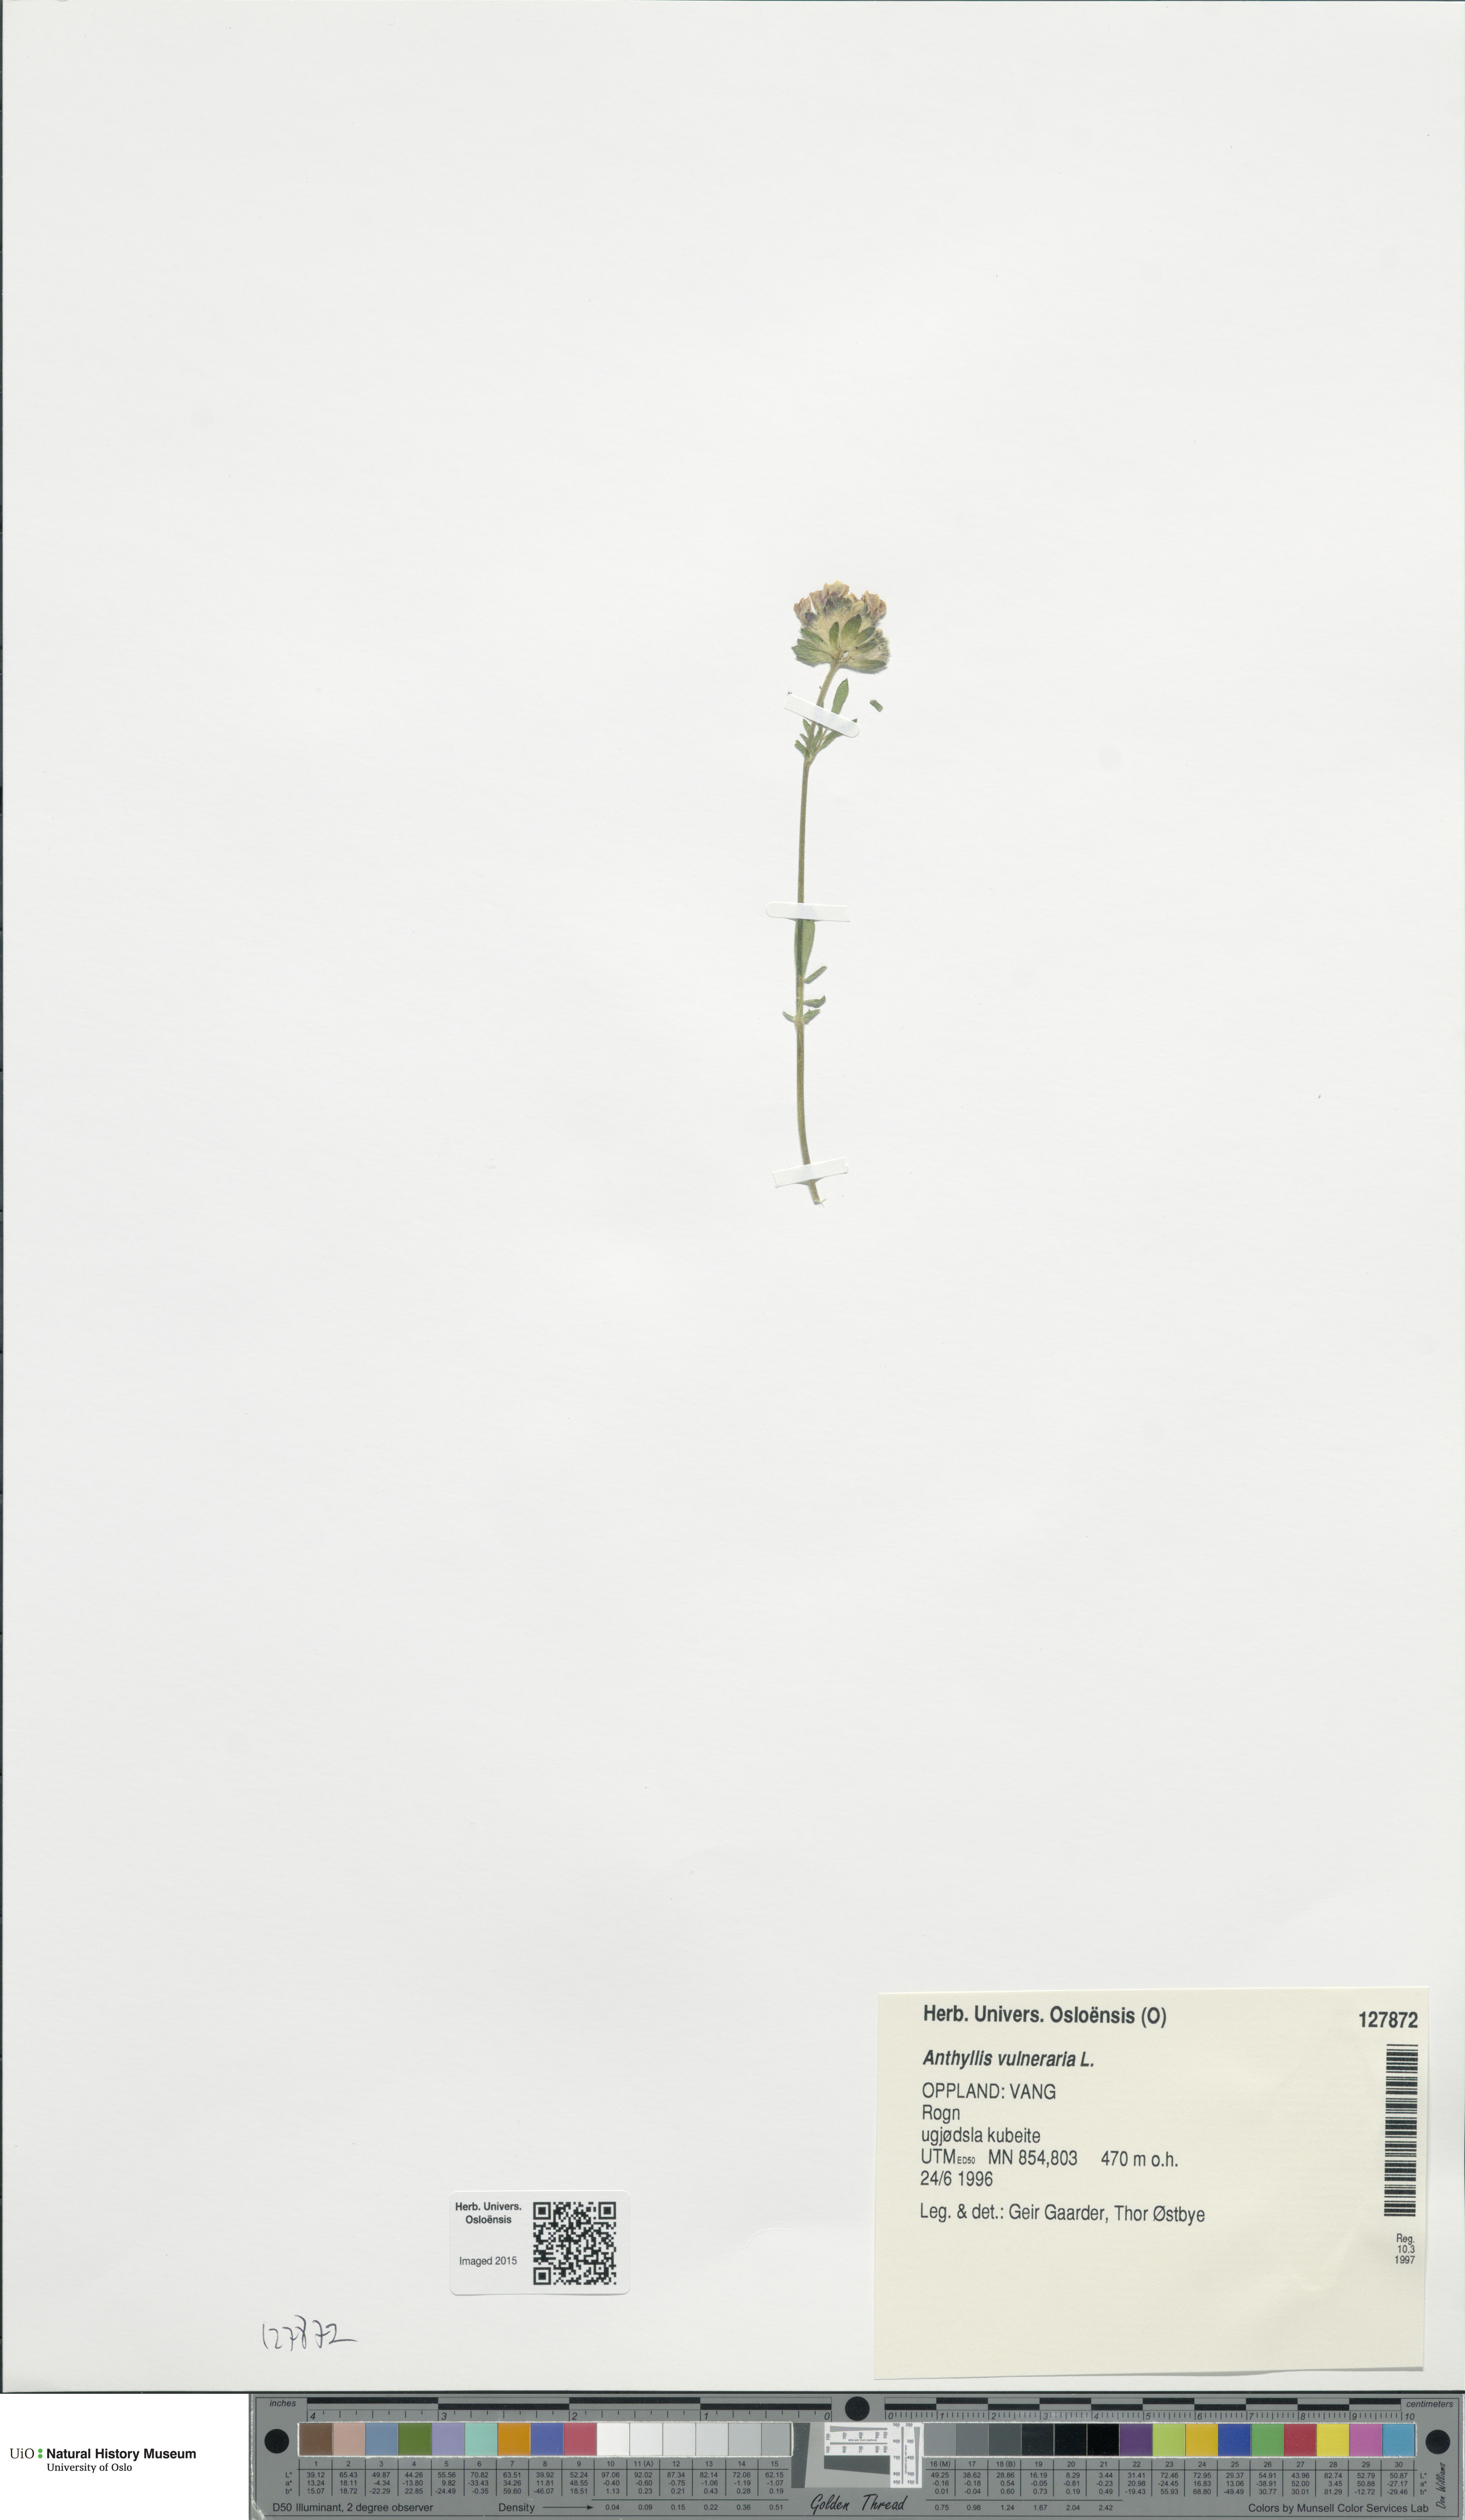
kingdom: Plantae
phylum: Tracheophyta
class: Magnoliopsida
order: Fabales
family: Fabaceae
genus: Anthyllis
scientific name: Anthyllis vulneraria
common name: Kidney vetch
